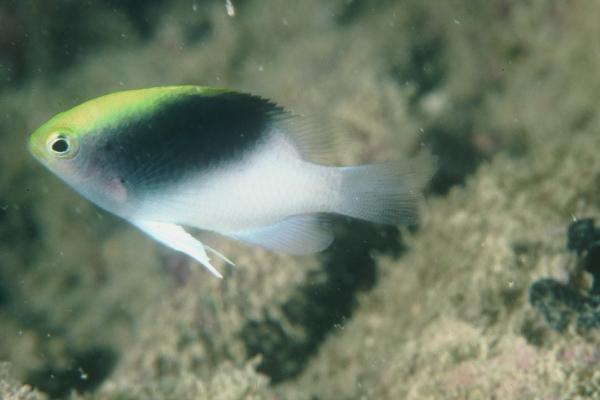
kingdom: Animalia
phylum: Chordata
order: Perciformes
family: Pomacentridae
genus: Chrysiptera
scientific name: Chrysiptera rollandi
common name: Rolland's demoiselle
